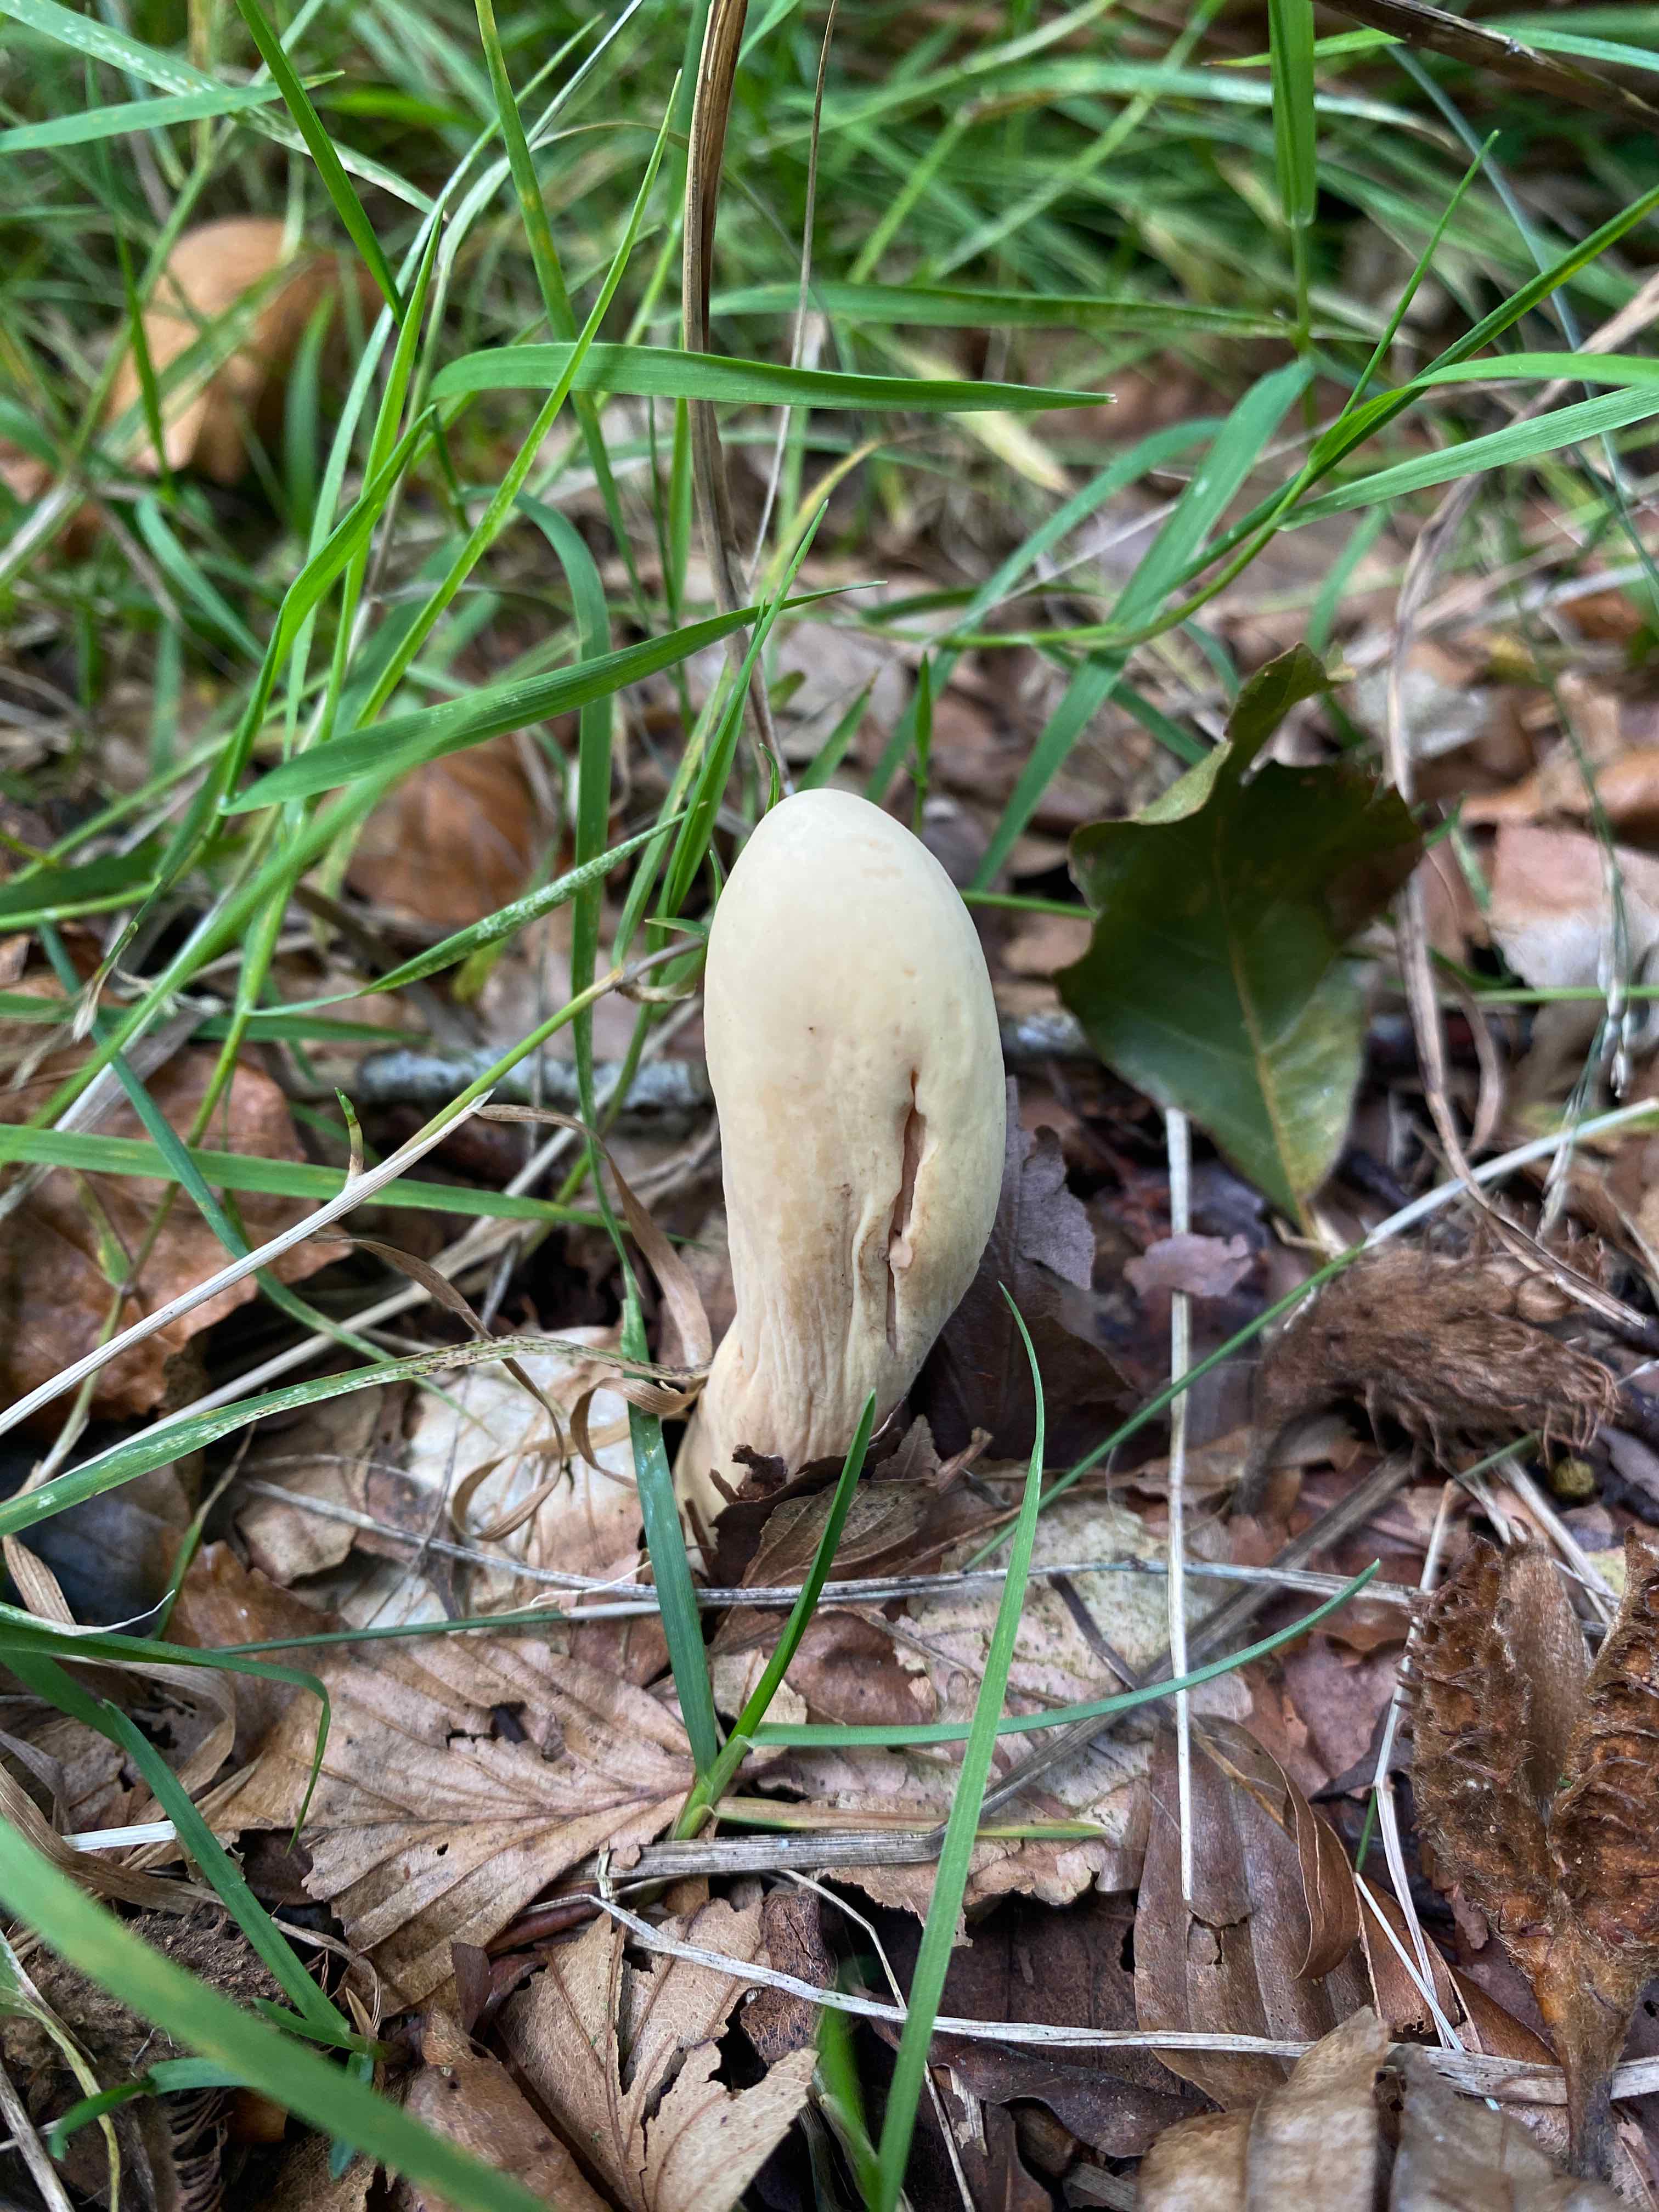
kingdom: Fungi
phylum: Basidiomycota
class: Agaricomycetes
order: Gomphales
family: Clavariadelphaceae
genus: Clavariadelphus
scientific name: Clavariadelphus pistillaris
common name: herkules-kæmpekølle
